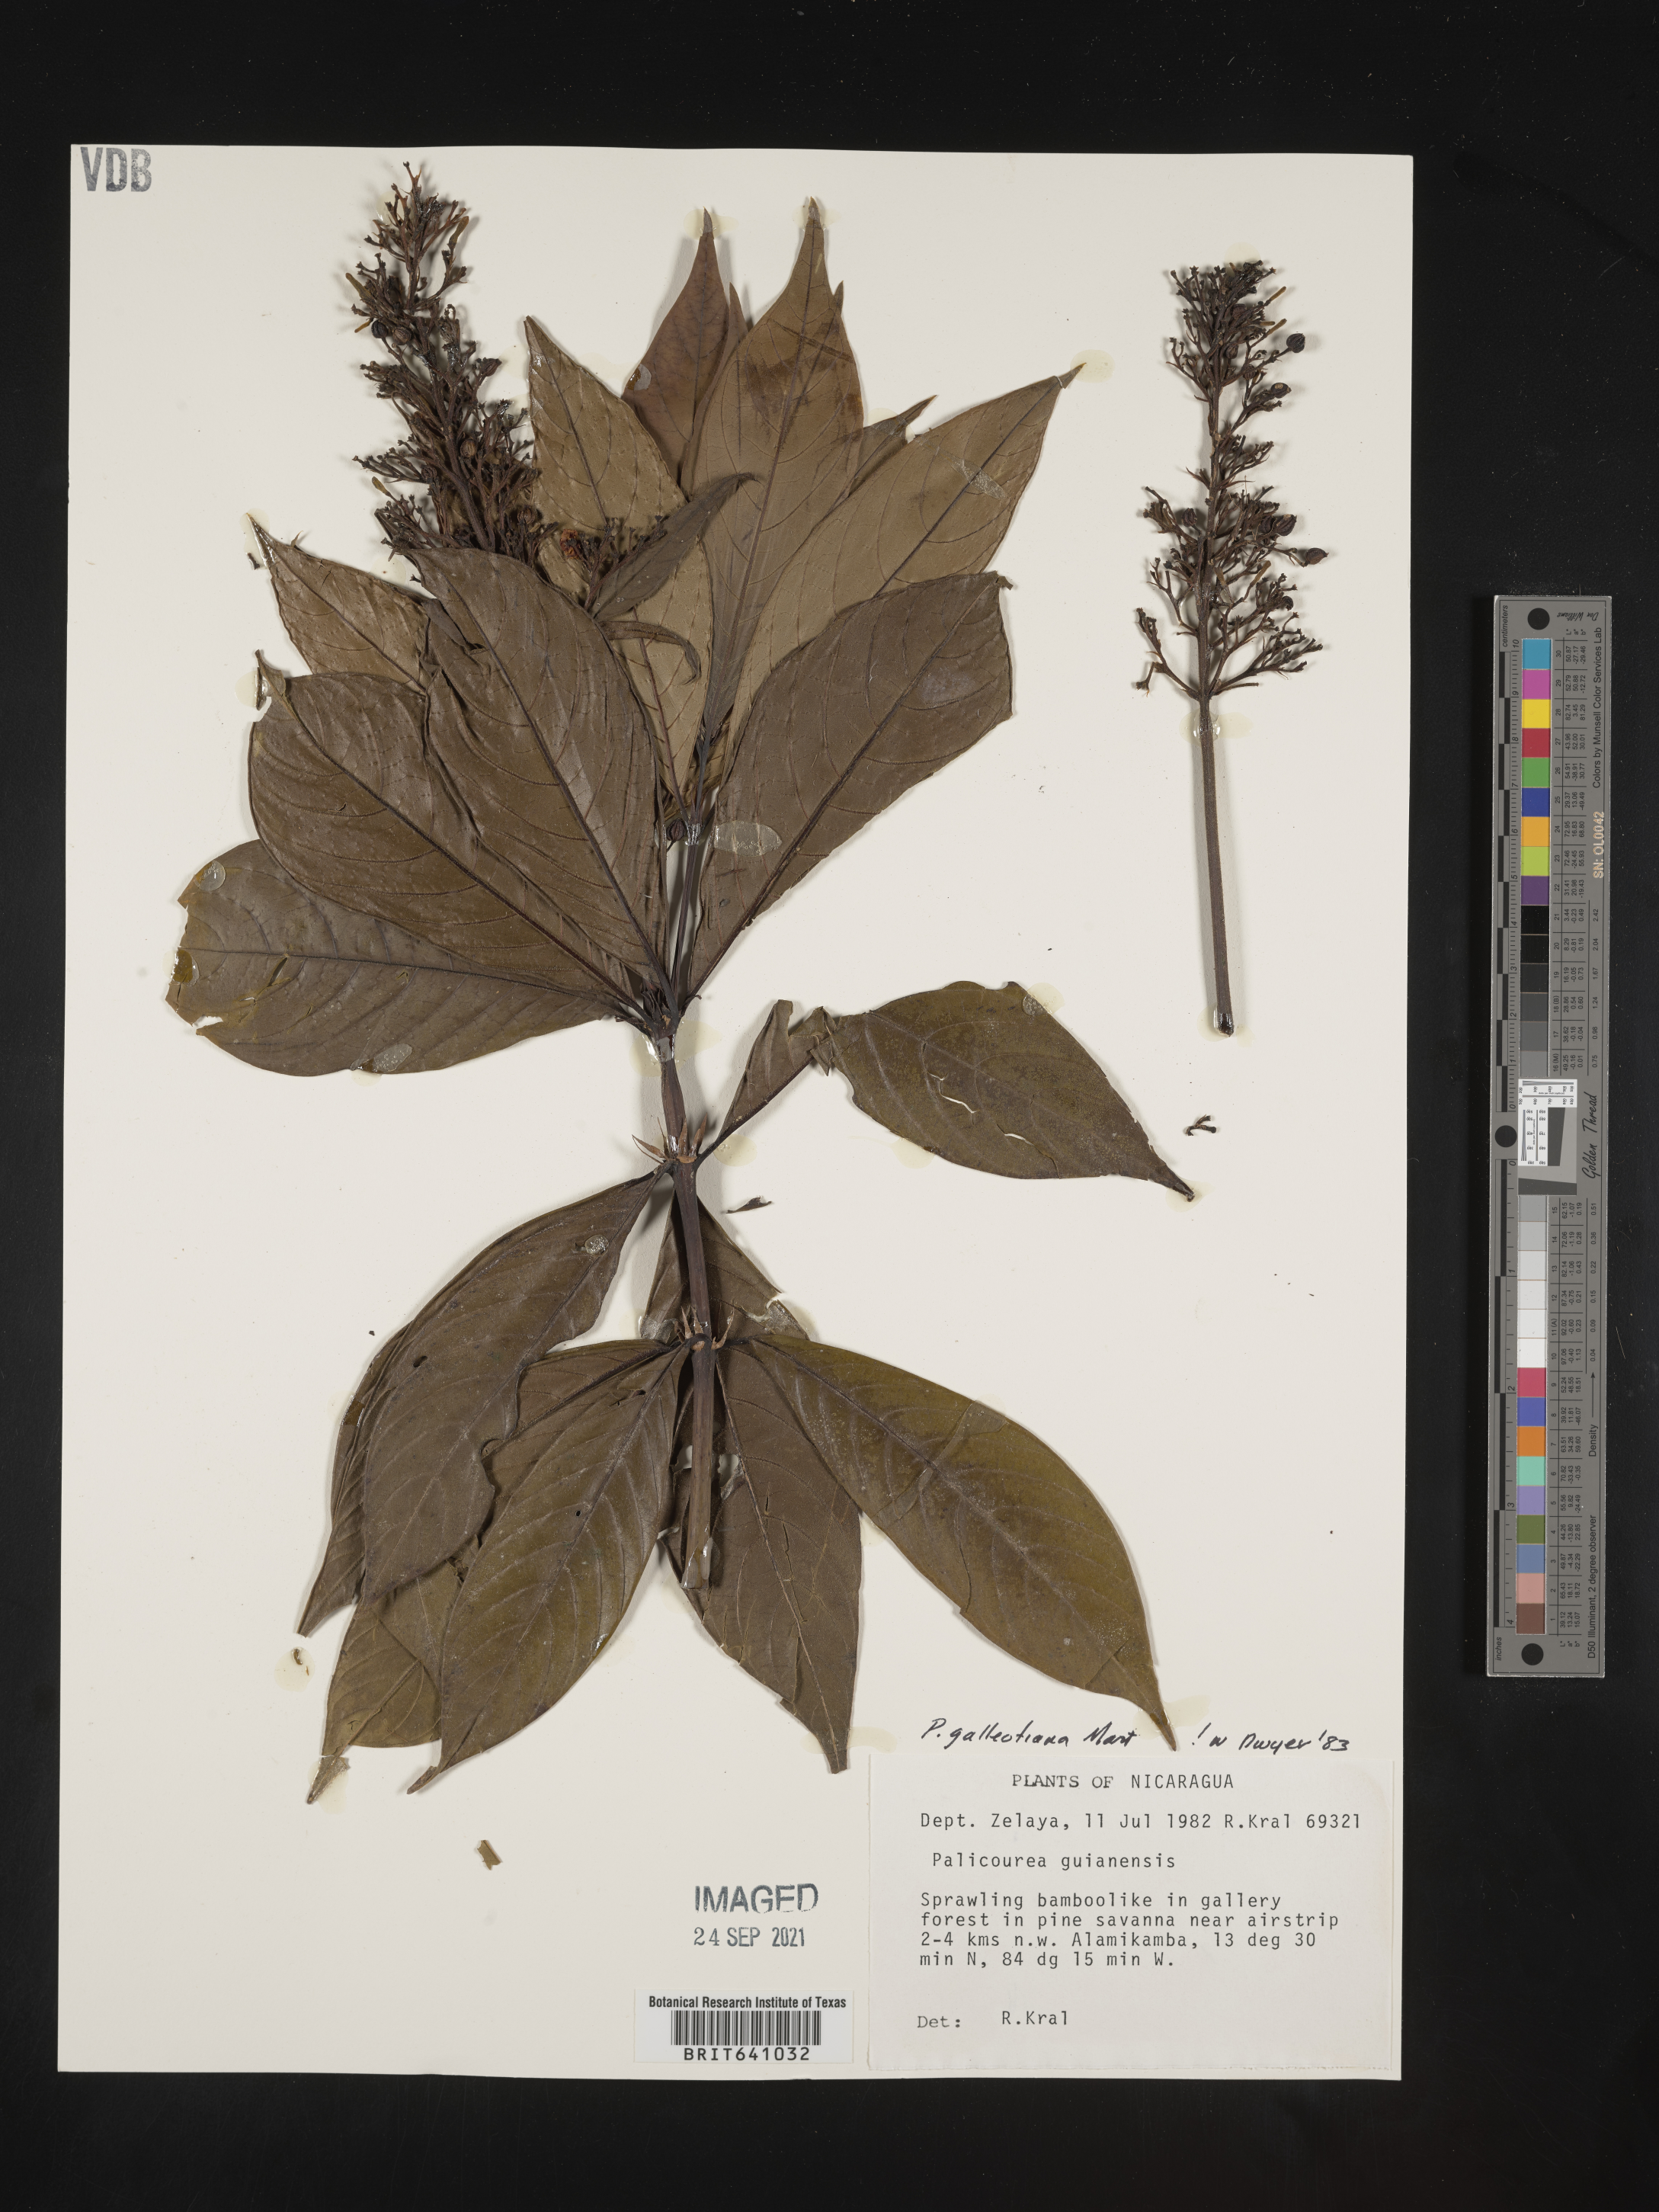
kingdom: Plantae
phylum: Tracheophyta
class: Magnoliopsida
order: Gentianales
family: Rubiaceae
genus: Palicourea
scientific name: Palicourea
